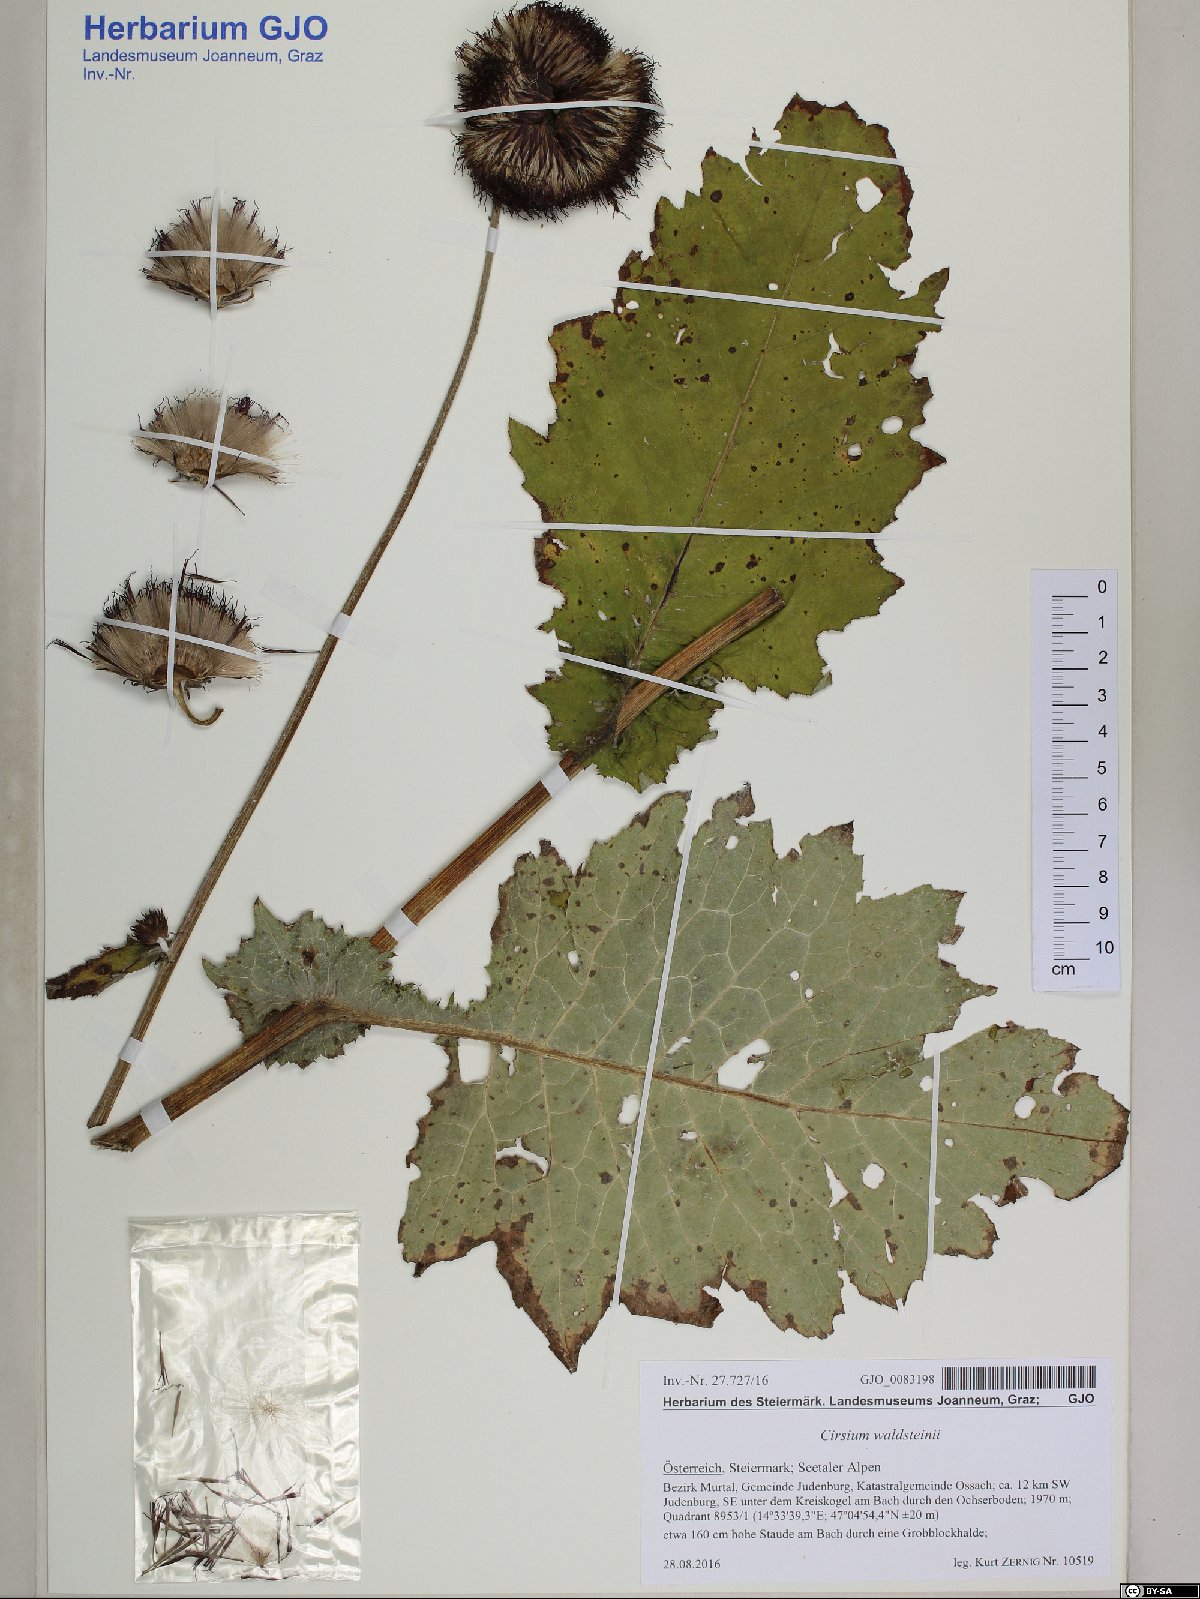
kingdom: Plantae
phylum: Tracheophyta
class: Magnoliopsida
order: Asterales
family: Asteraceae
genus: Cirsium
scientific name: Cirsium greimleri
